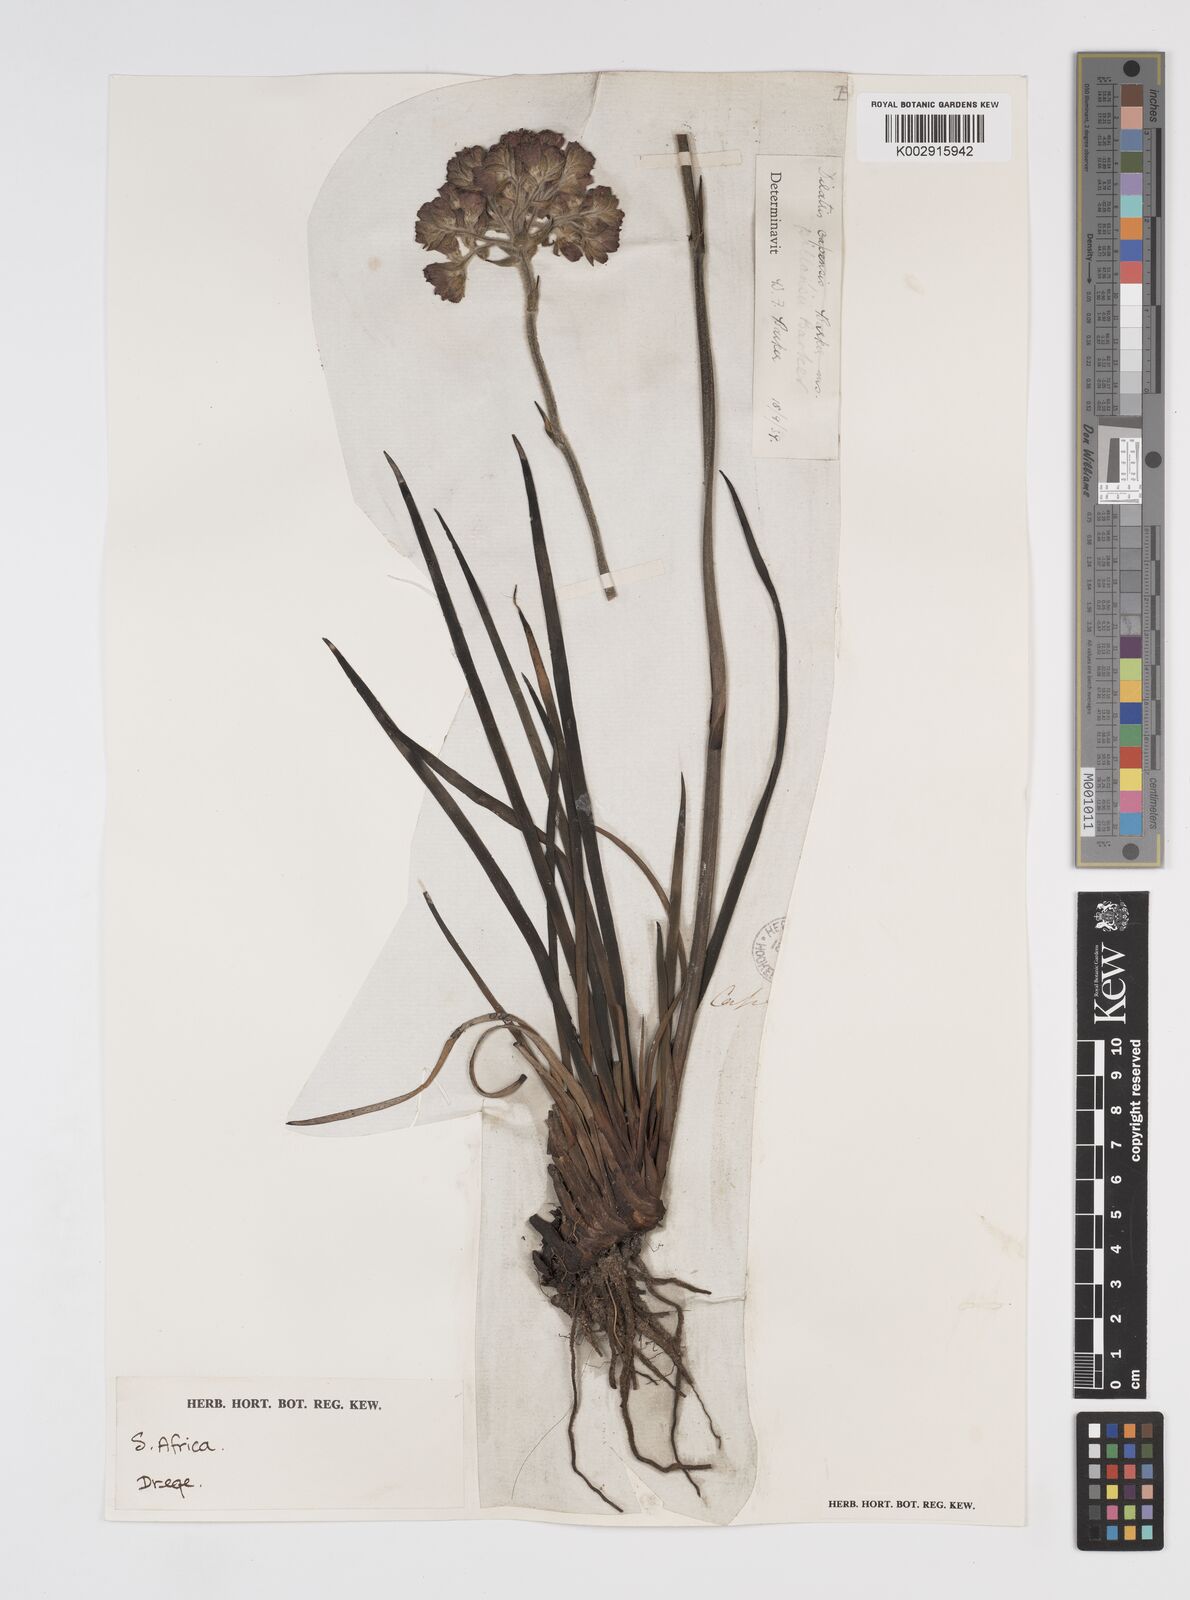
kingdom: Plantae
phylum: Tracheophyta
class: Liliopsida
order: Commelinales
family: Haemodoraceae
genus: Dilatris
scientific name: Dilatris pillansii
